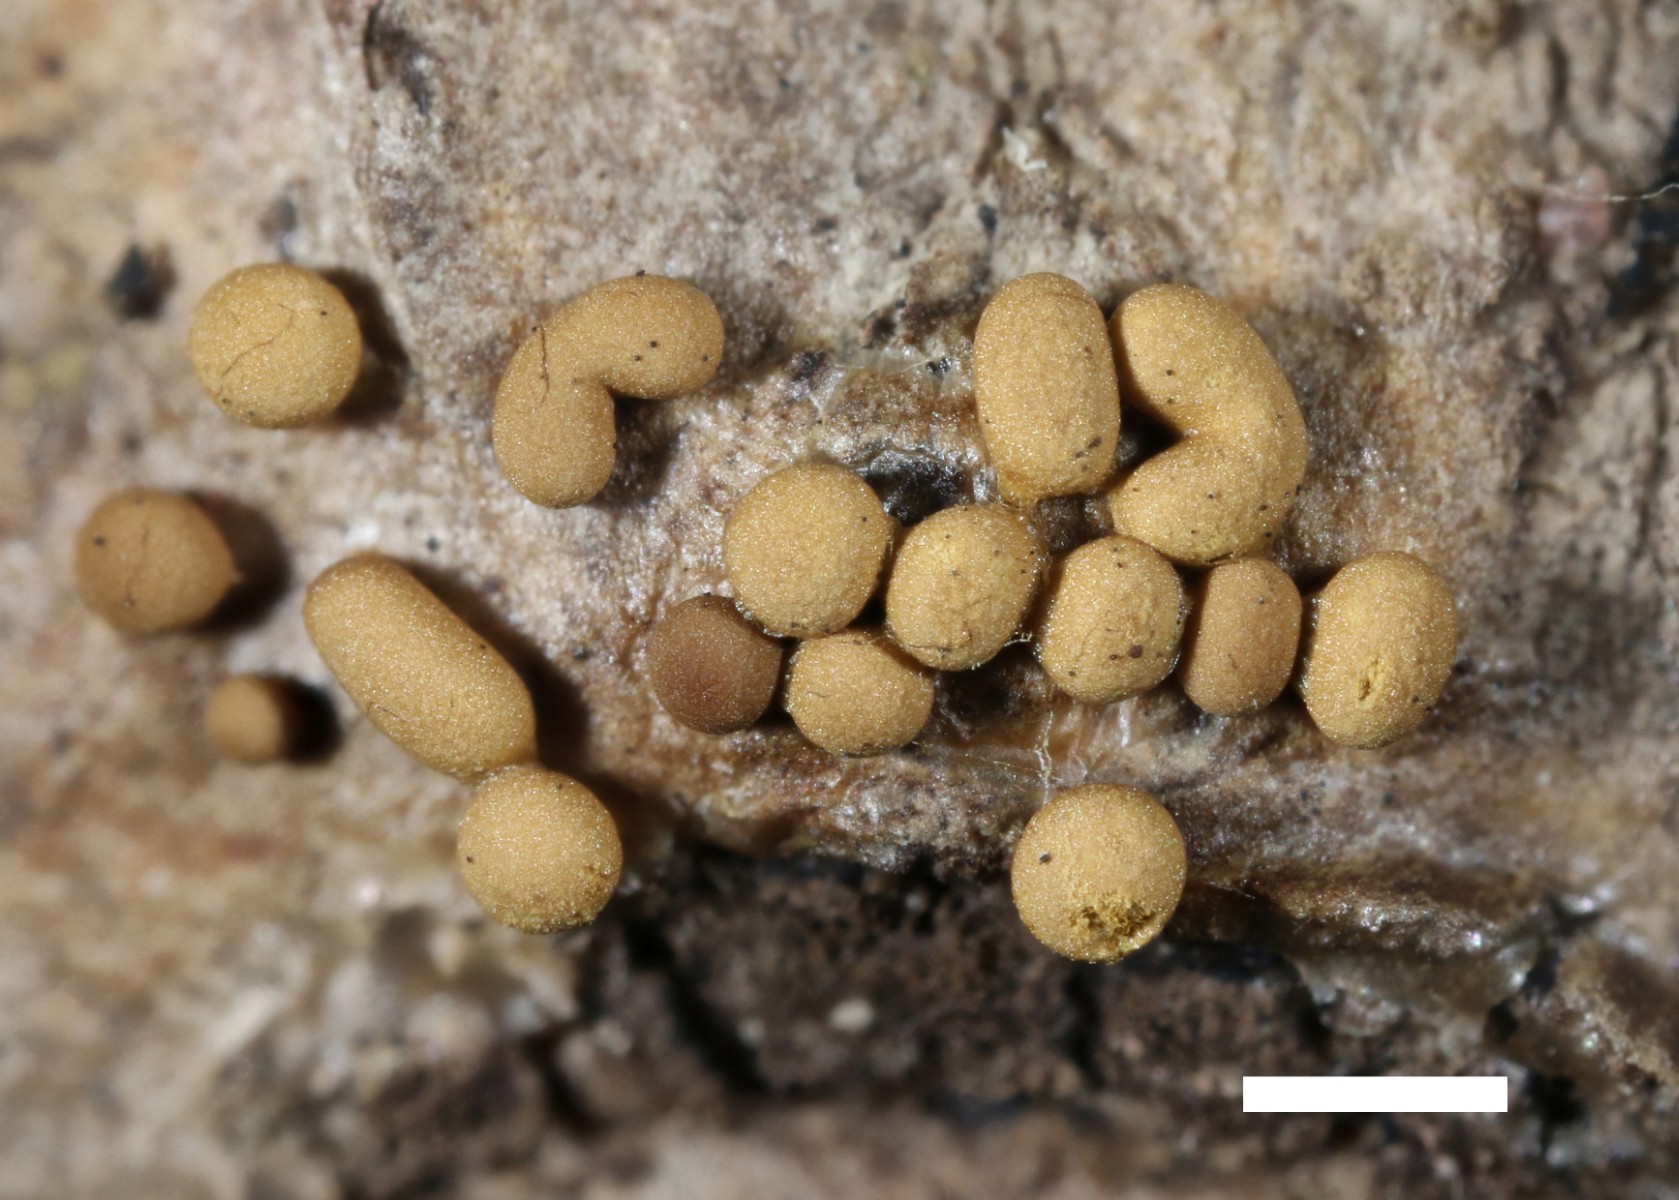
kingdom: Protozoa
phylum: Mycetozoa
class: Myxomycetes
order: Trichiales
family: Trichiaceae
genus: Trichia
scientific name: Trichia varia
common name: foranderlig hårbold
